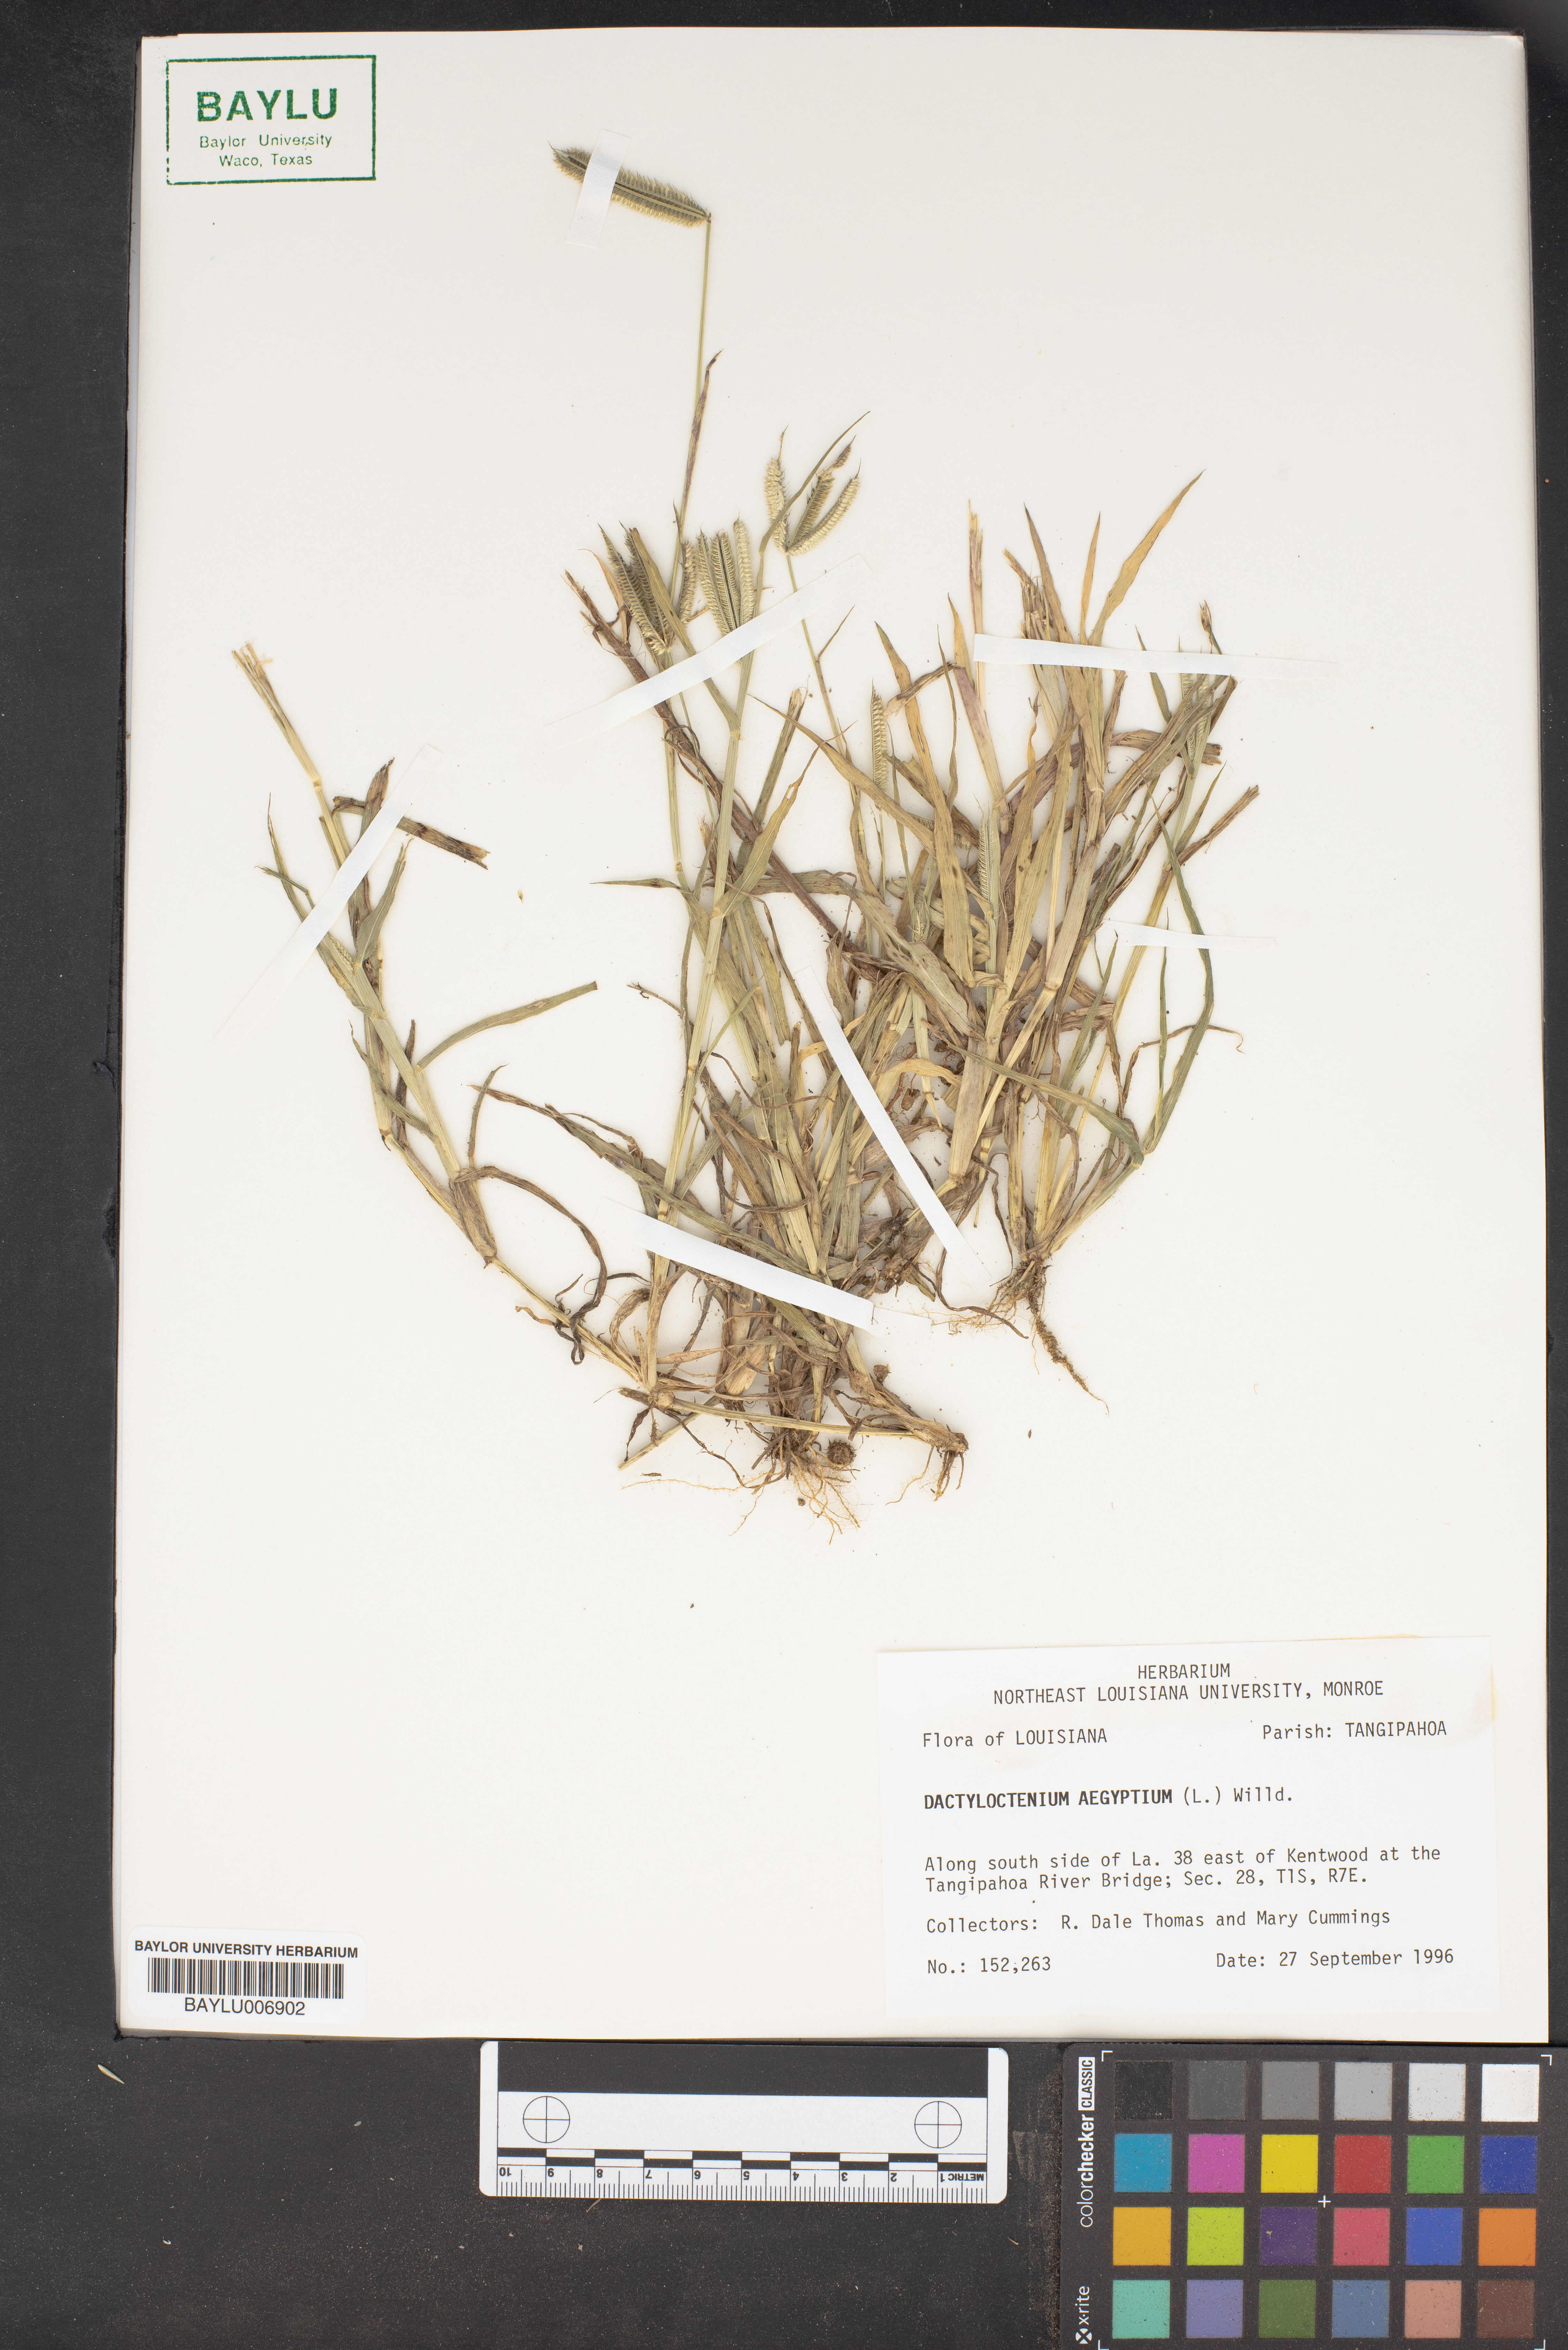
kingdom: Plantae
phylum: Tracheophyta
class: Liliopsida
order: Poales
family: Poaceae
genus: Dactyloctenium
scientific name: Dactyloctenium aegyptium
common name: Egyptian grass
